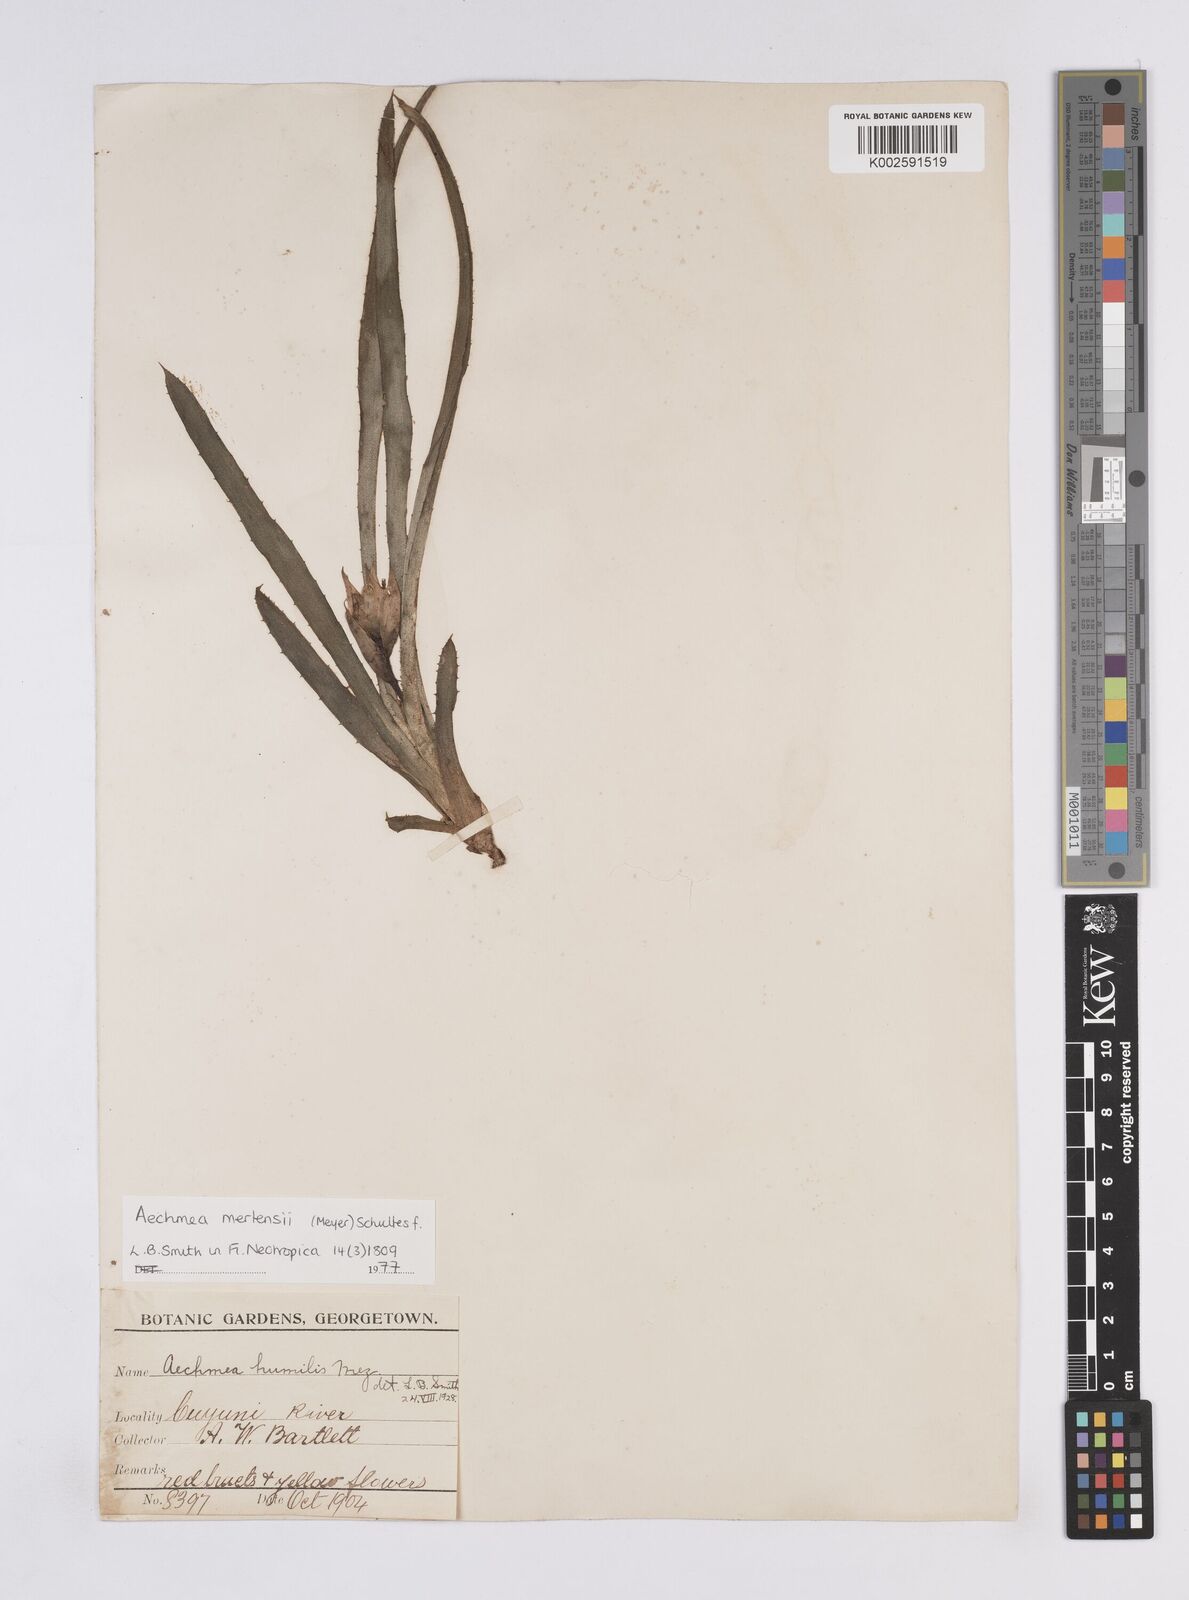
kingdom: Plantae
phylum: Tracheophyta
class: Liliopsida
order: Poales
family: Bromeliaceae
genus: Aechmea
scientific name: Aechmea mertensii
